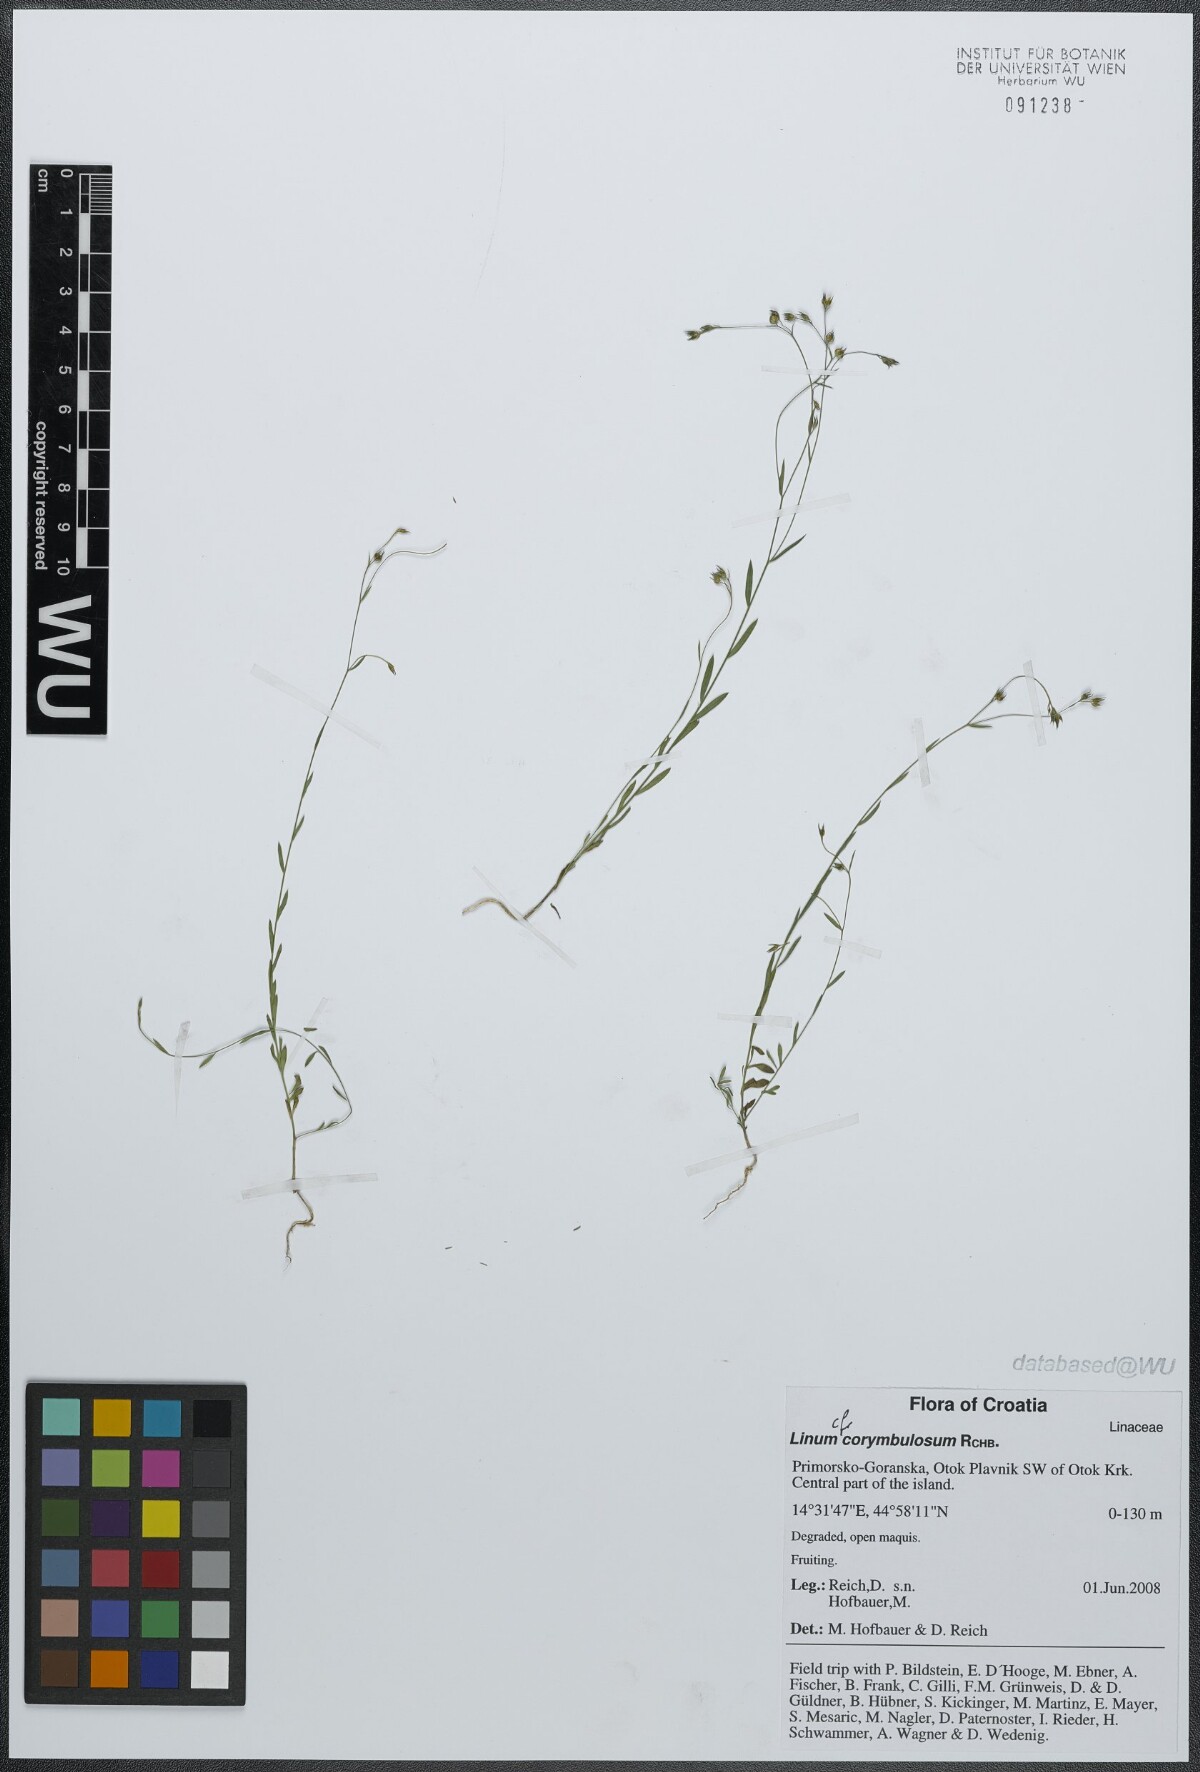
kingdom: Plantae
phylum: Tracheophyta
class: Magnoliopsida
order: Malpighiales
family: Linaceae
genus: Linum
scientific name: Linum corymbulosum
